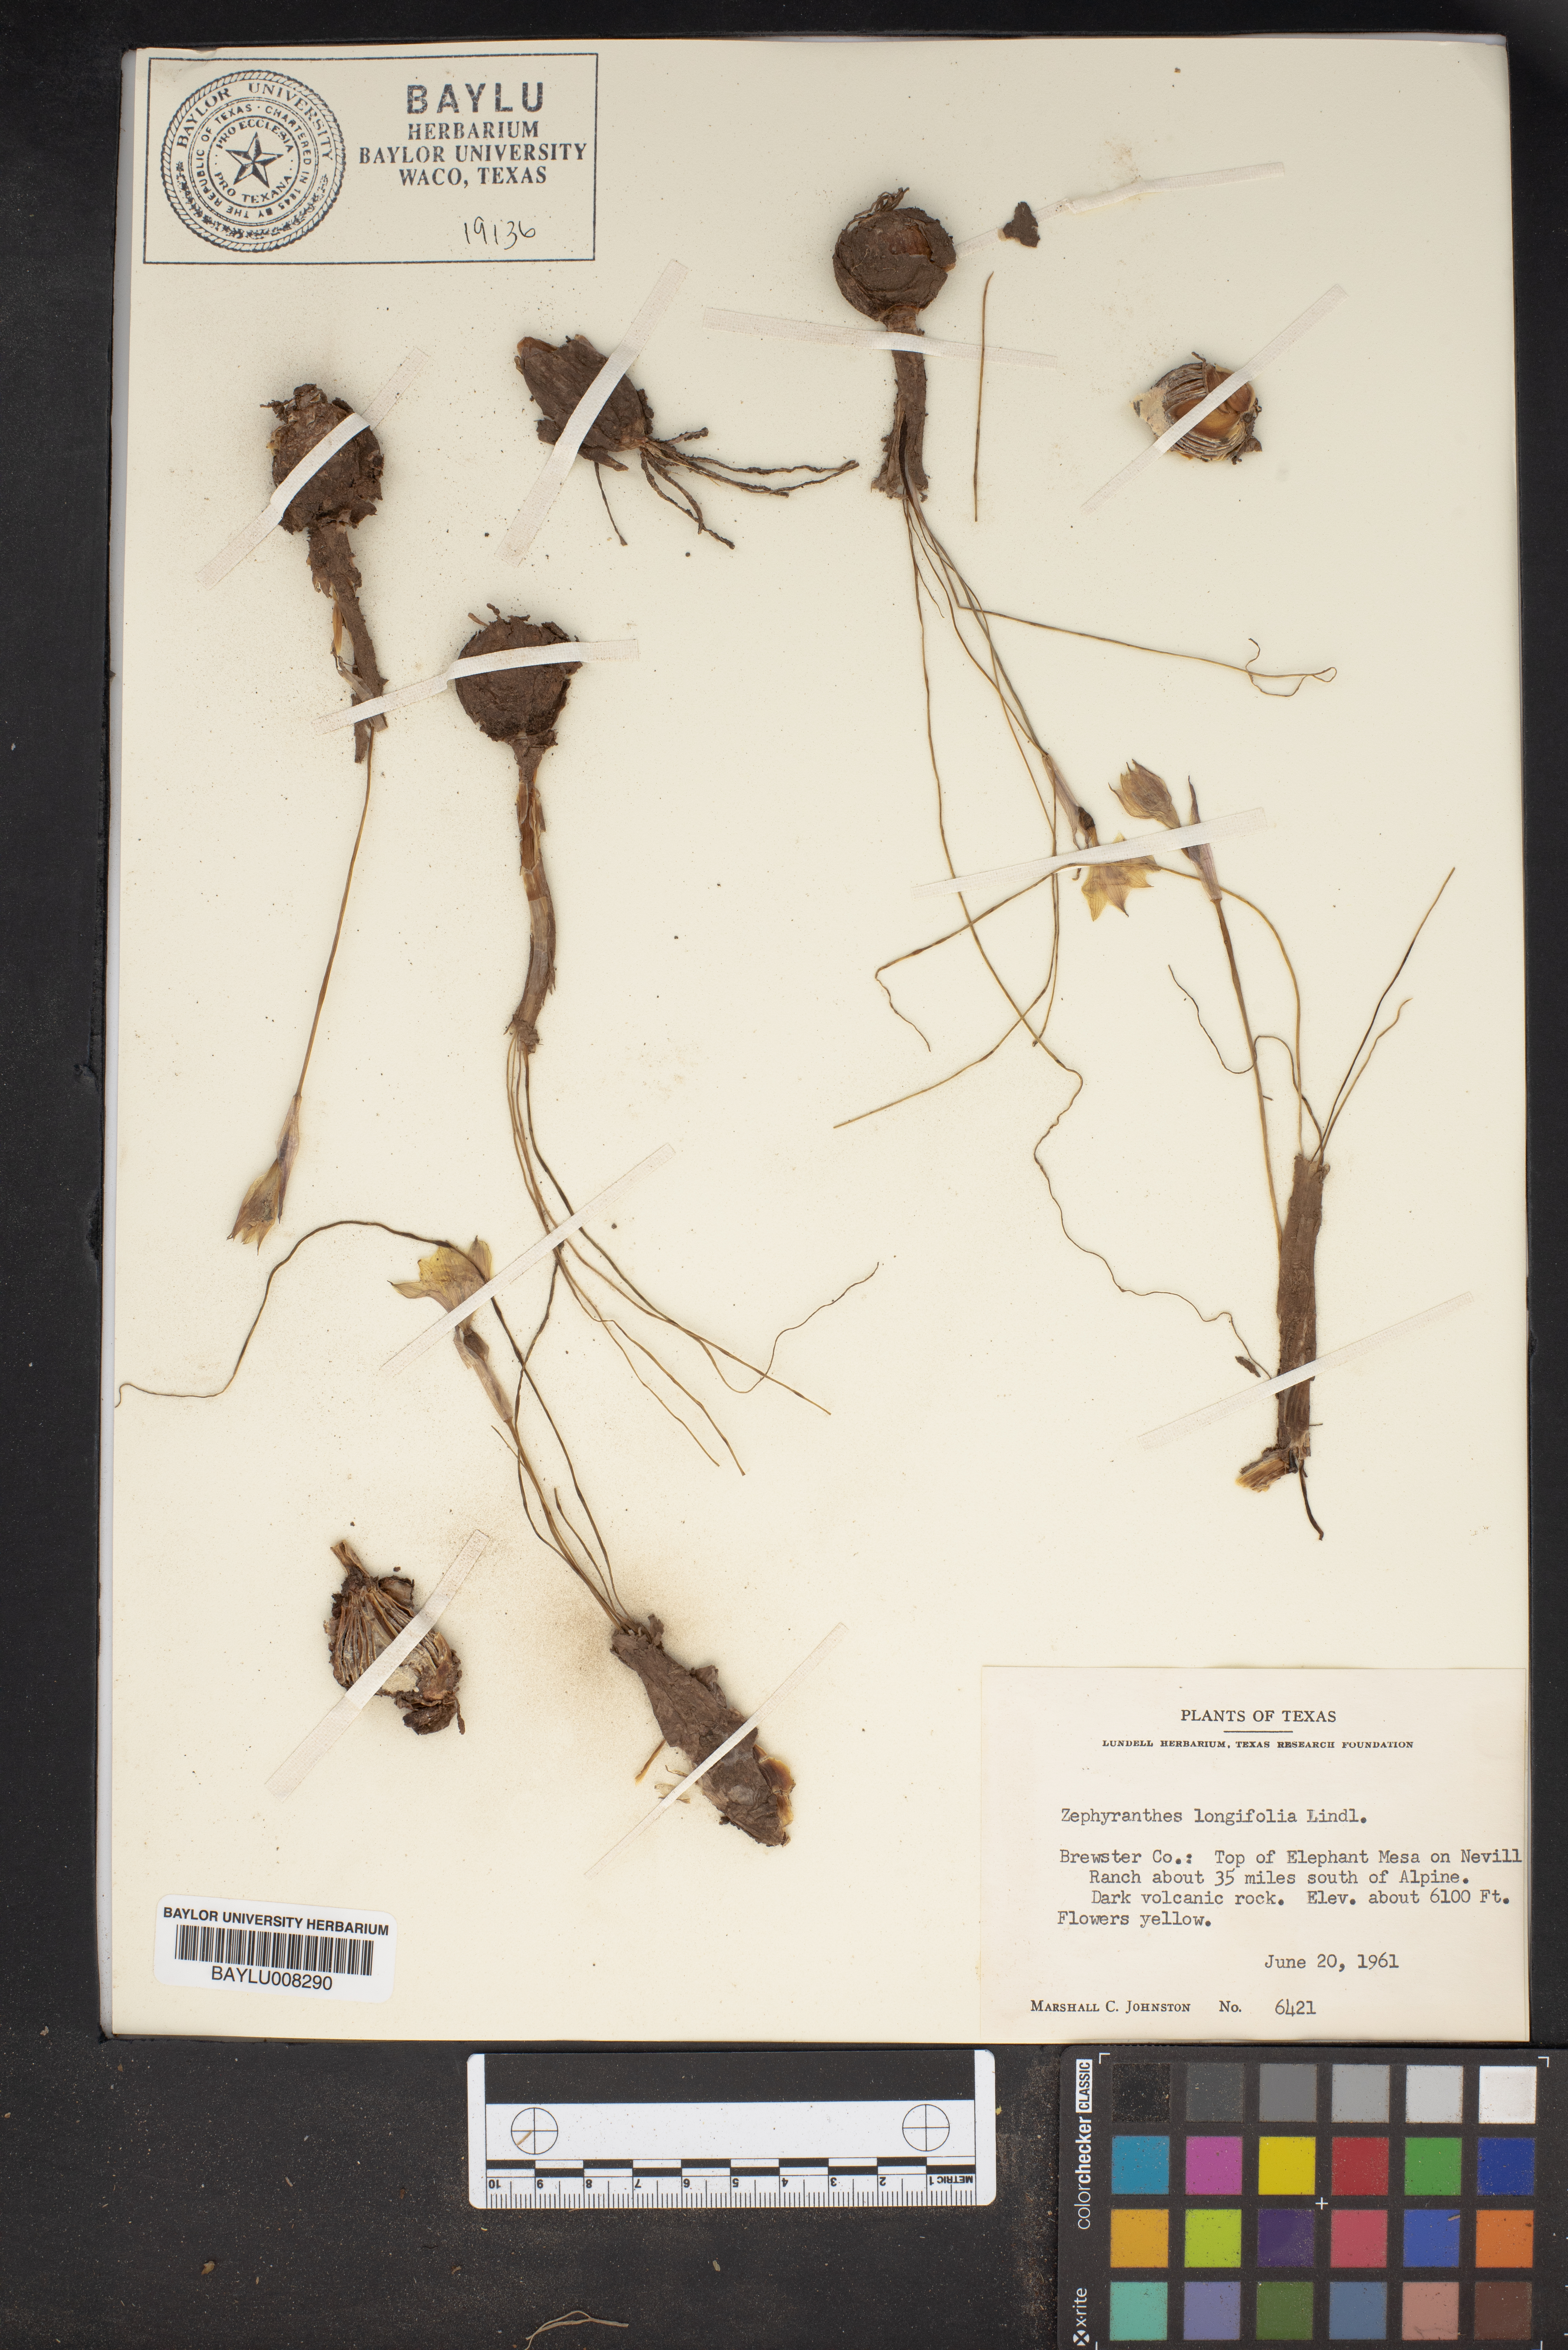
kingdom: Plantae
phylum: Tracheophyta
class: Liliopsida
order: Asparagales
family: Amaryllidaceae
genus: Zephyranthes
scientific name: Zephyranthes longifolia
